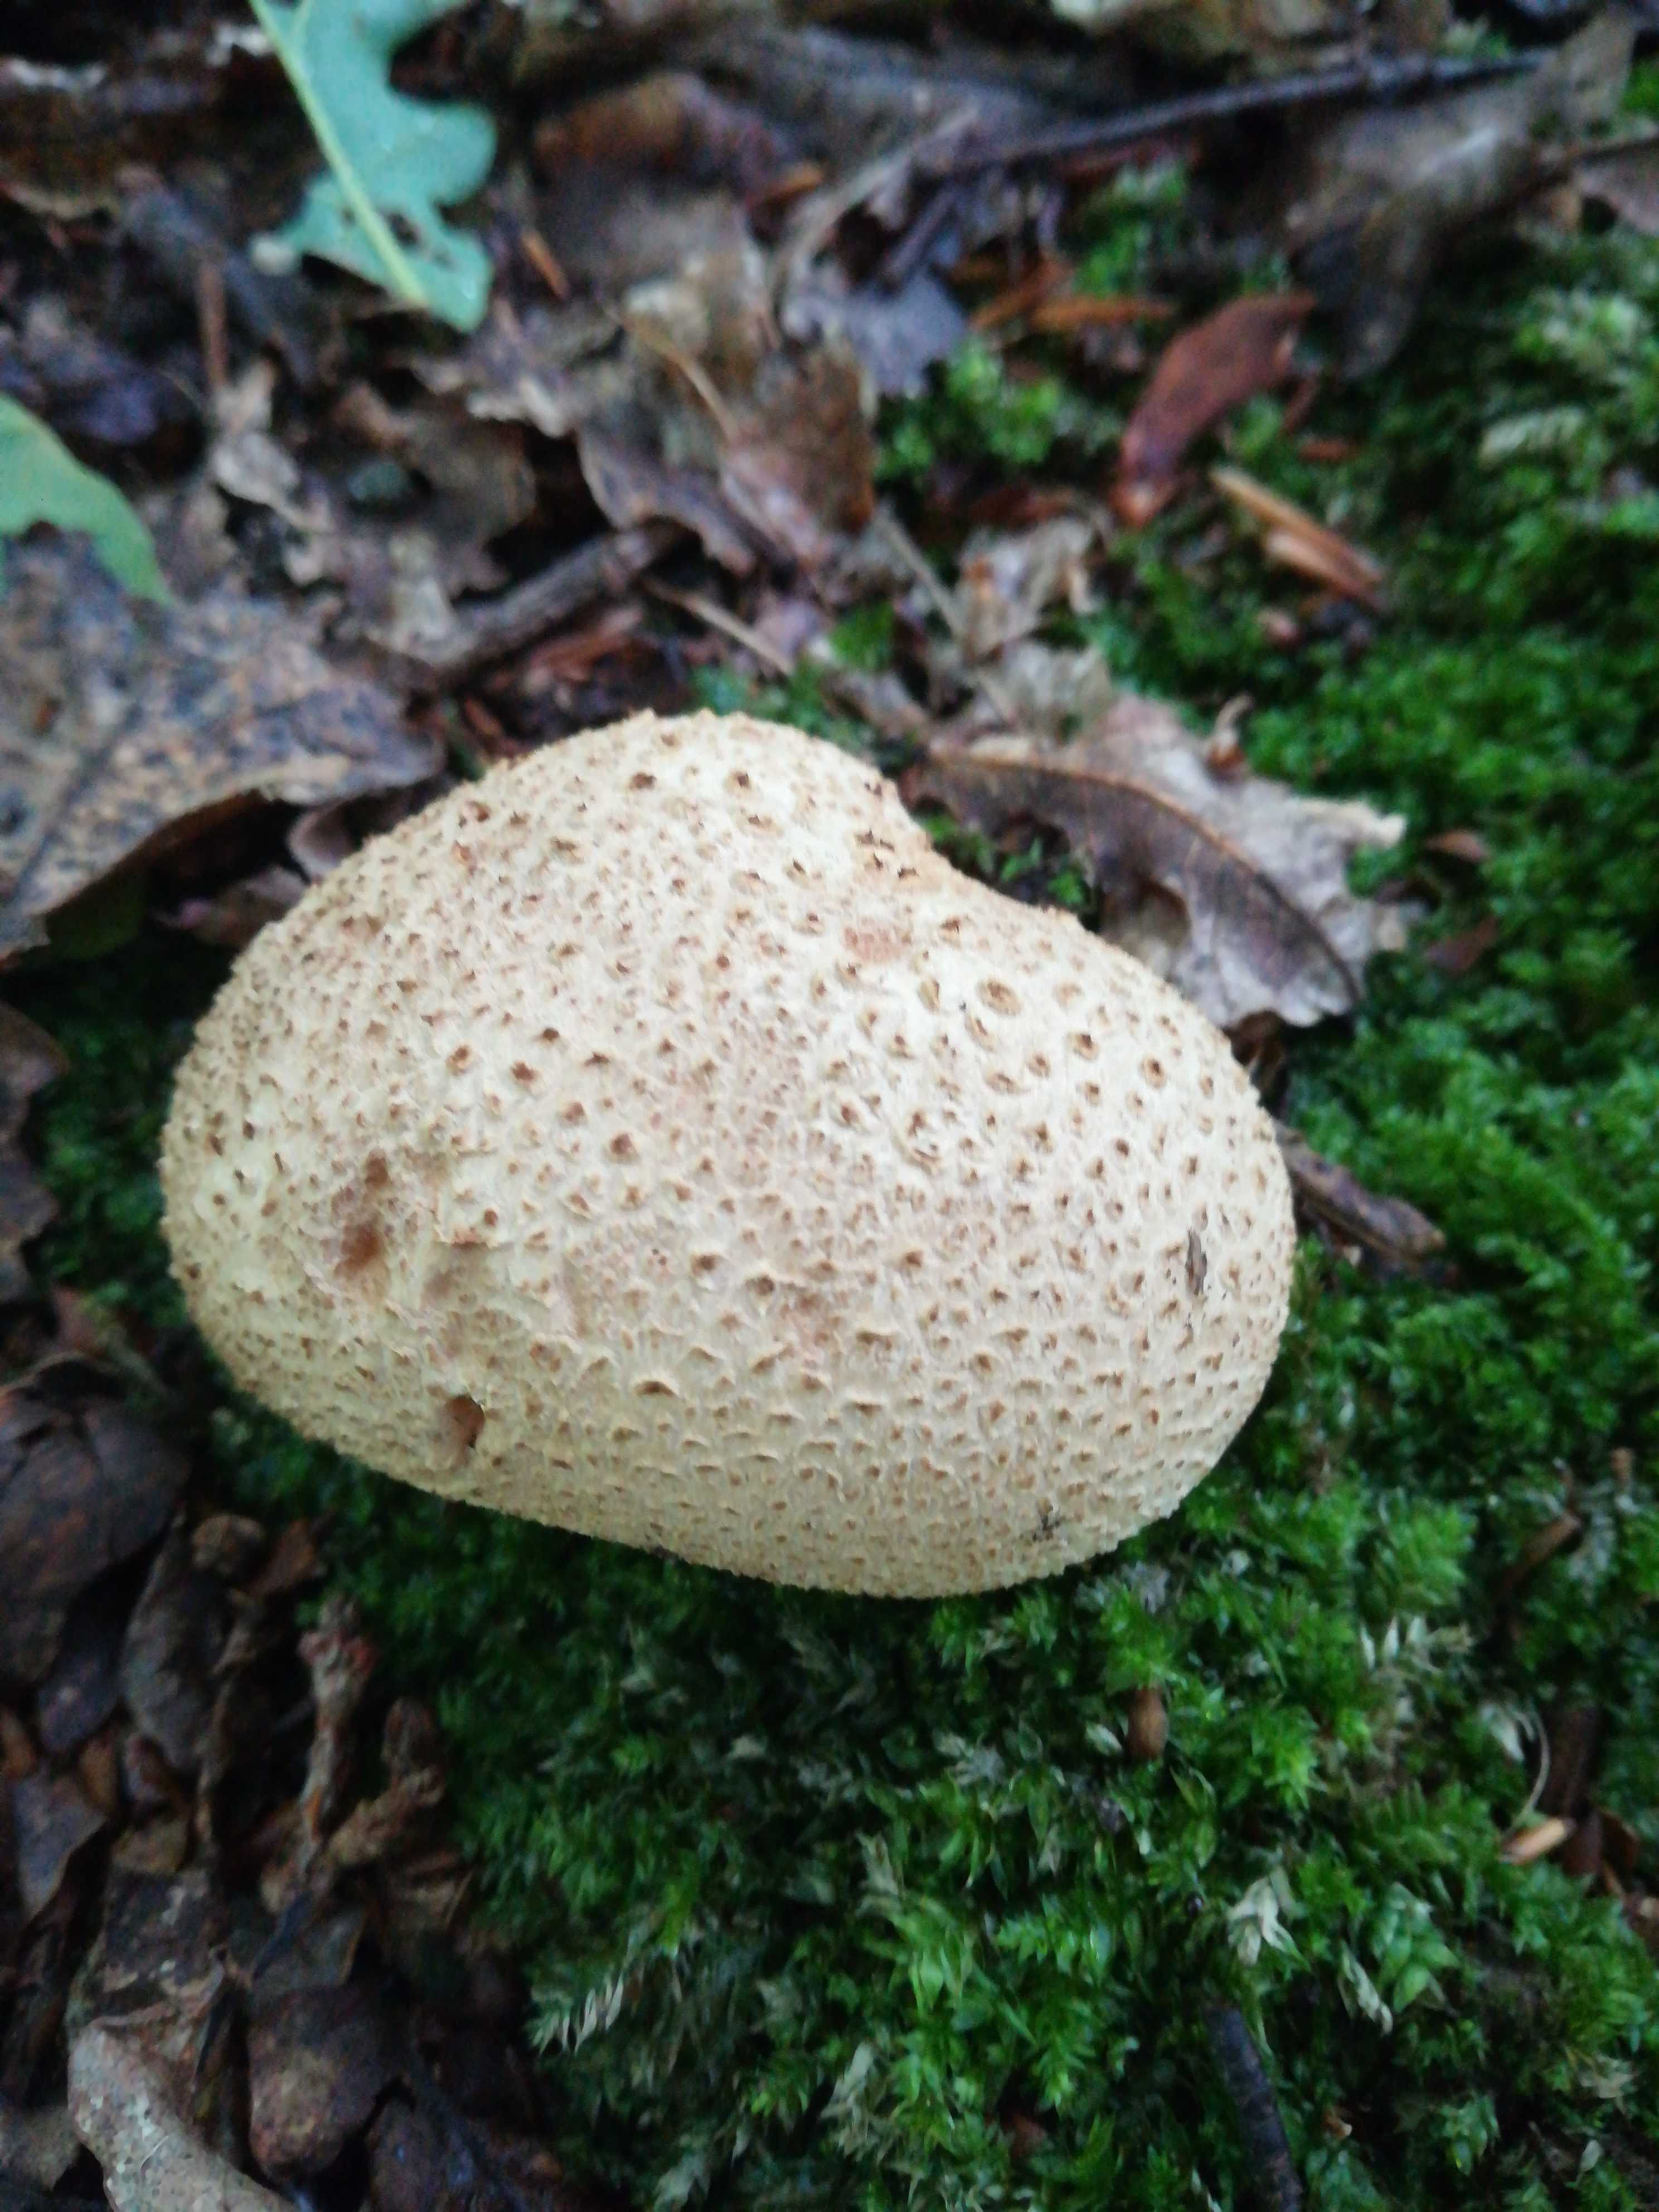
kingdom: Fungi
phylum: Basidiomycota
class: Agaricomycetes
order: Boletales
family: Sclerodermataceae
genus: Scleroderma
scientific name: Scleroderma citrinum
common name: almindelig bruskbold
